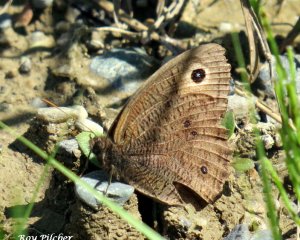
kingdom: Animalia
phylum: Arthropoda
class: Insecta
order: Lepidoptera
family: Nymphalidae
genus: Cercyonis
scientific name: Cercyonis pegala
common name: Common Wood-Nymph
